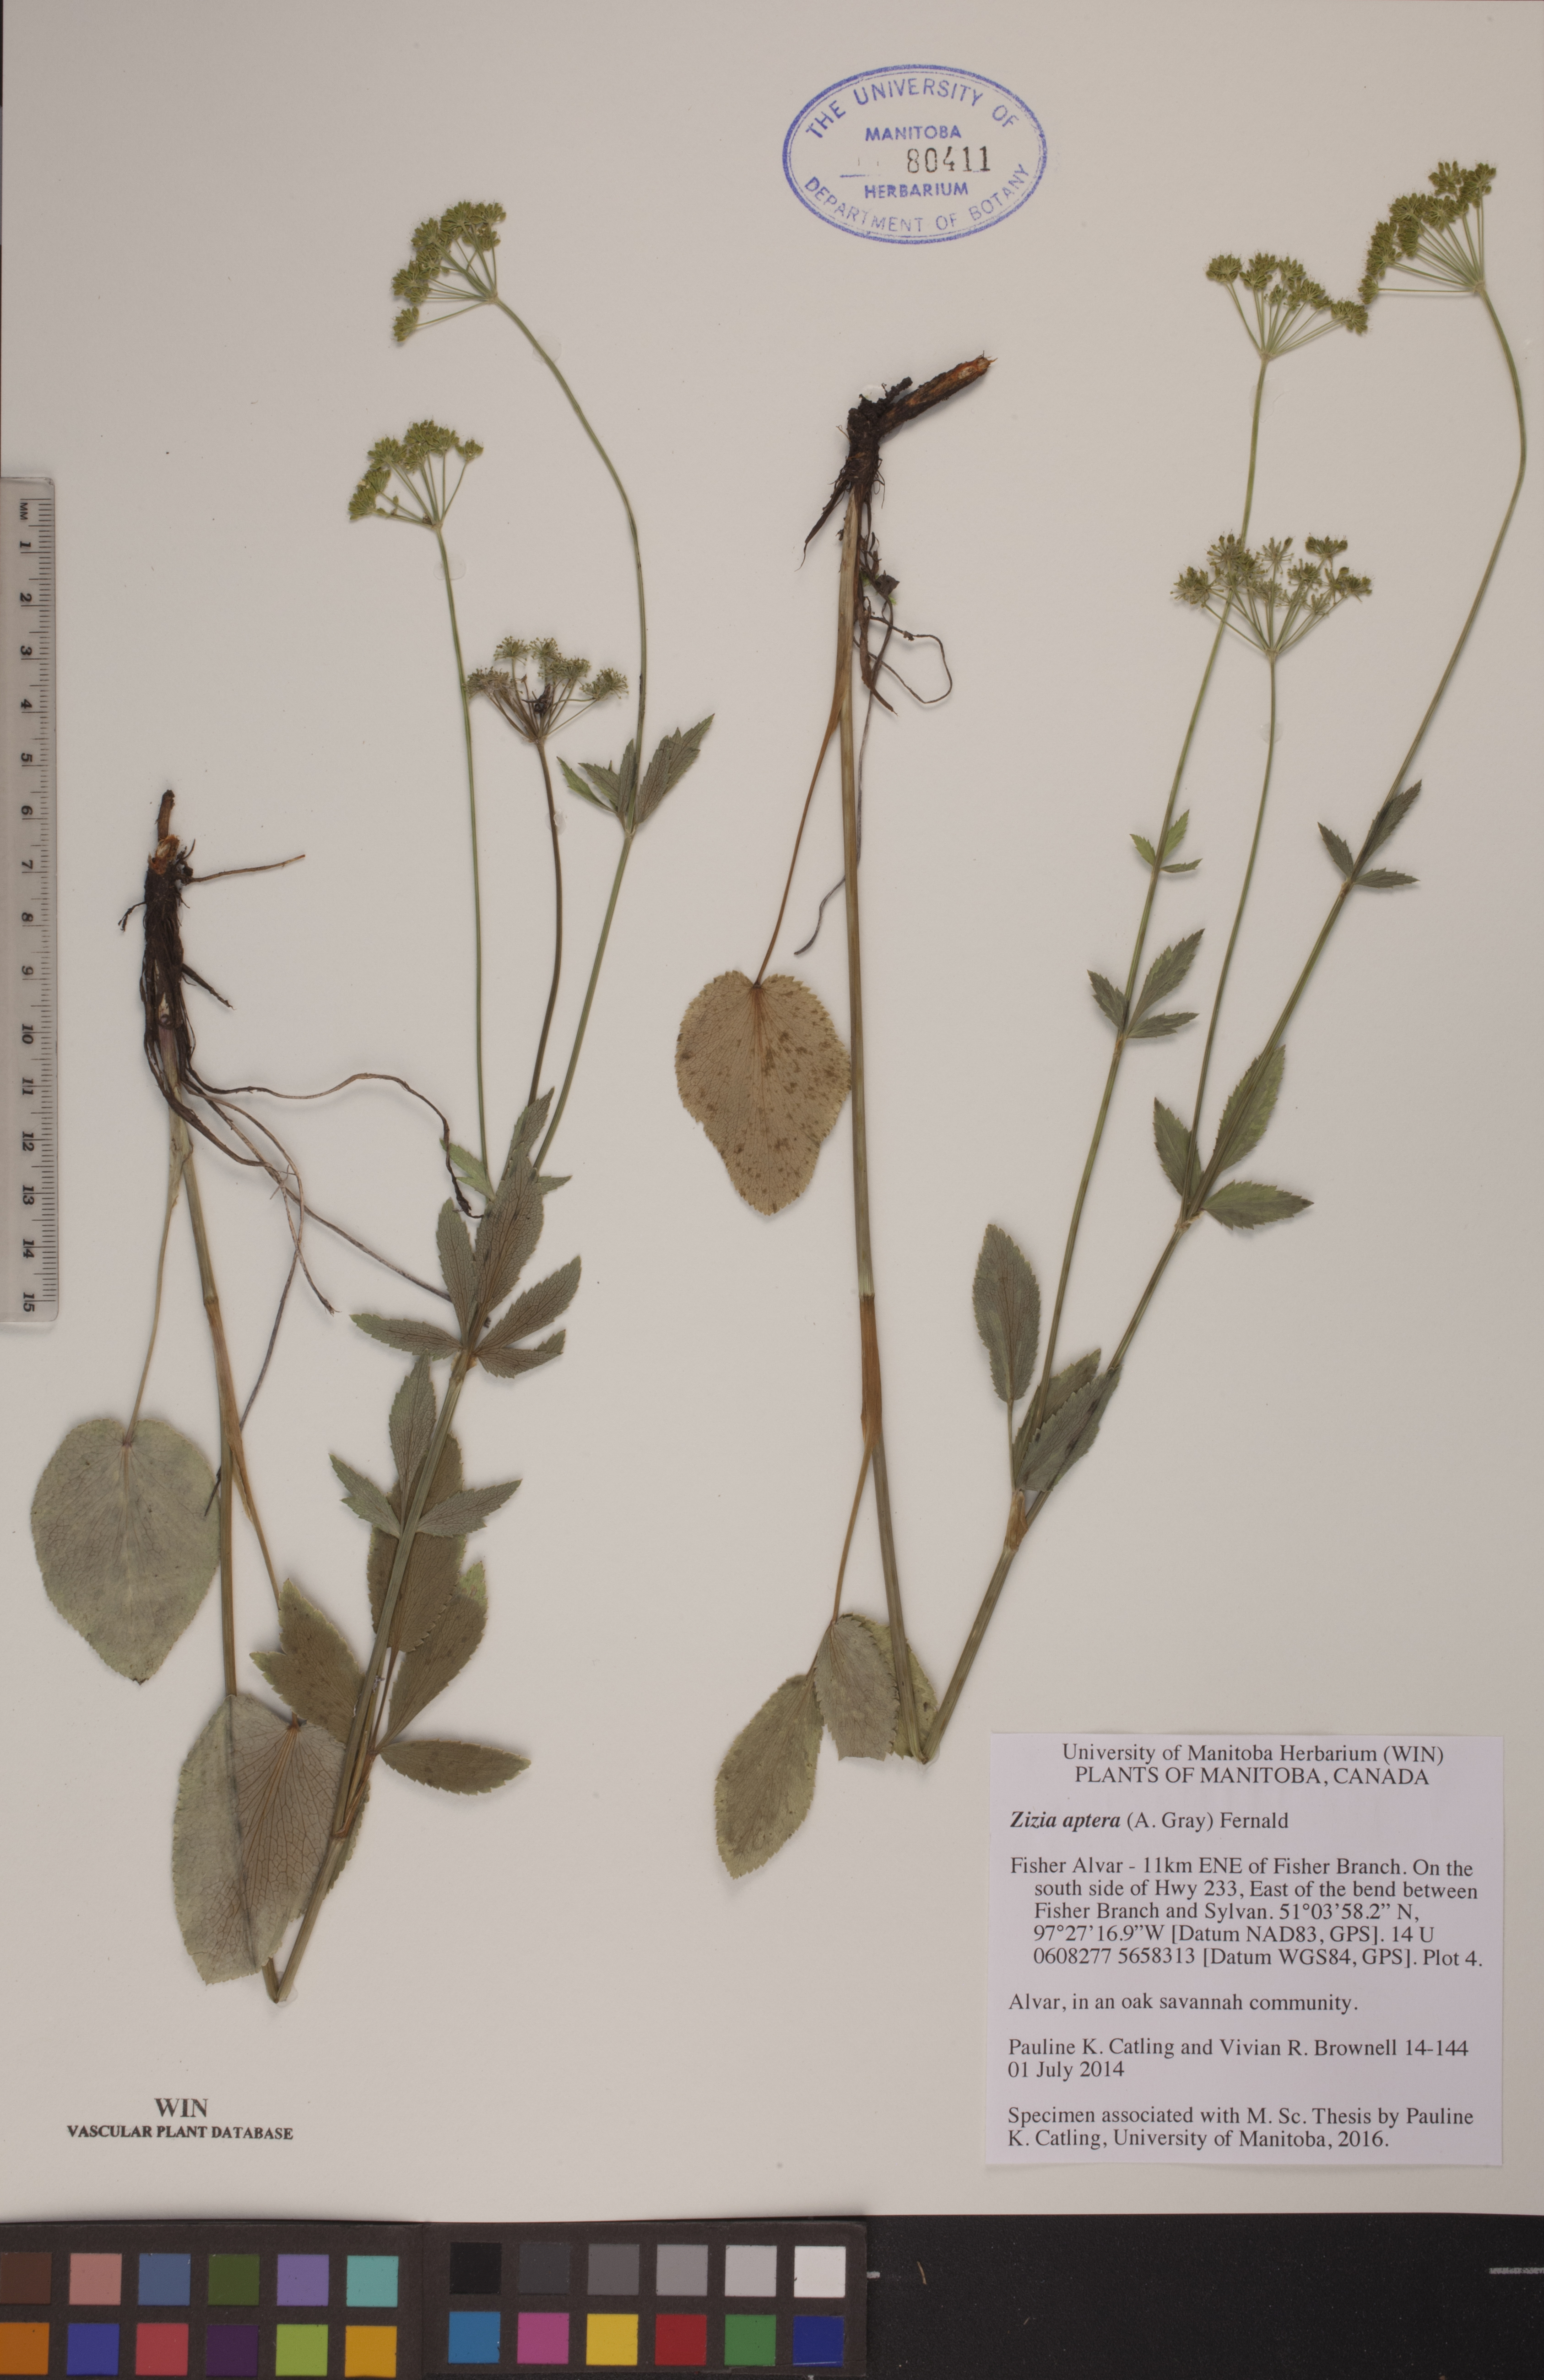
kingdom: Plantae
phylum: Tracheophyta
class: Magnoliopsida
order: Apiales
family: Apiaceae
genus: Zizia
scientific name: Zizia aptera
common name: Heart-leaved alexanders
